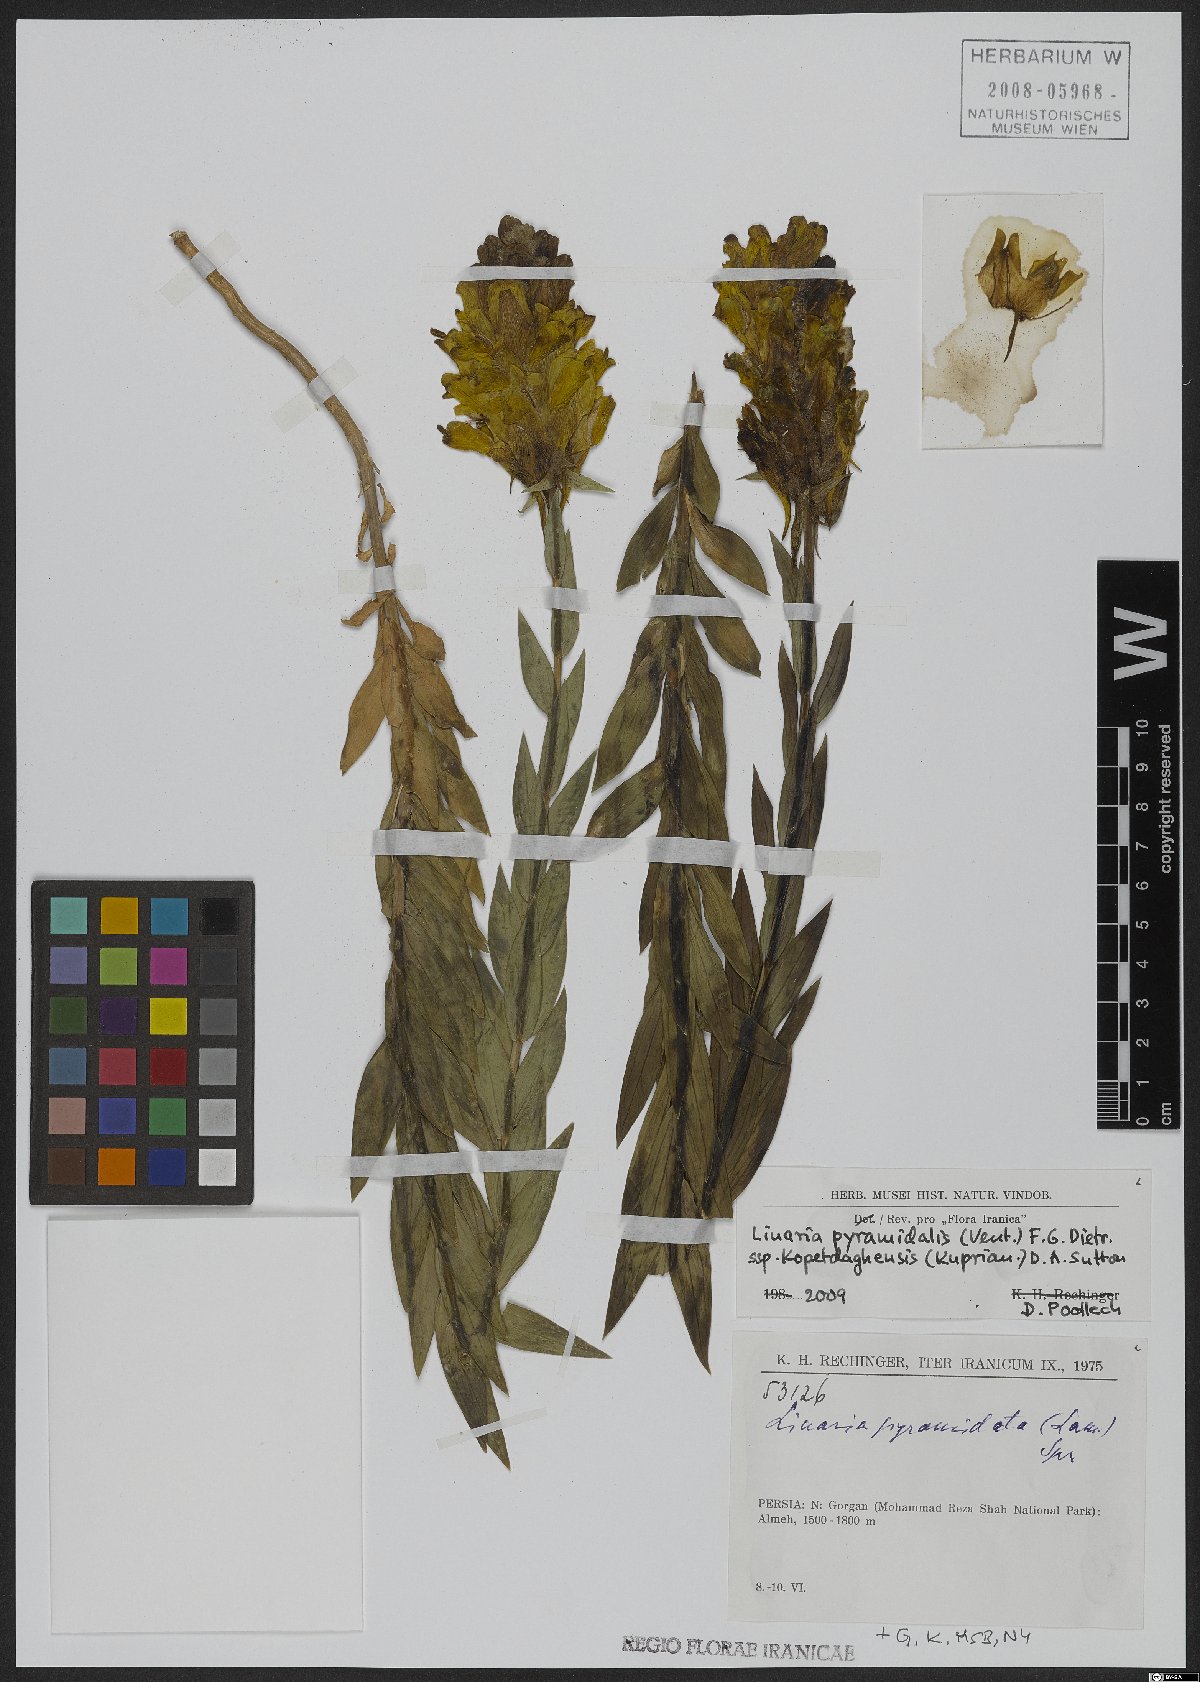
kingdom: Plantae
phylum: Tracheophyta
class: Magnoliopsida
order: Lamiales
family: Plantaginaceae
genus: Linaria
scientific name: Linaria pyramidalis
